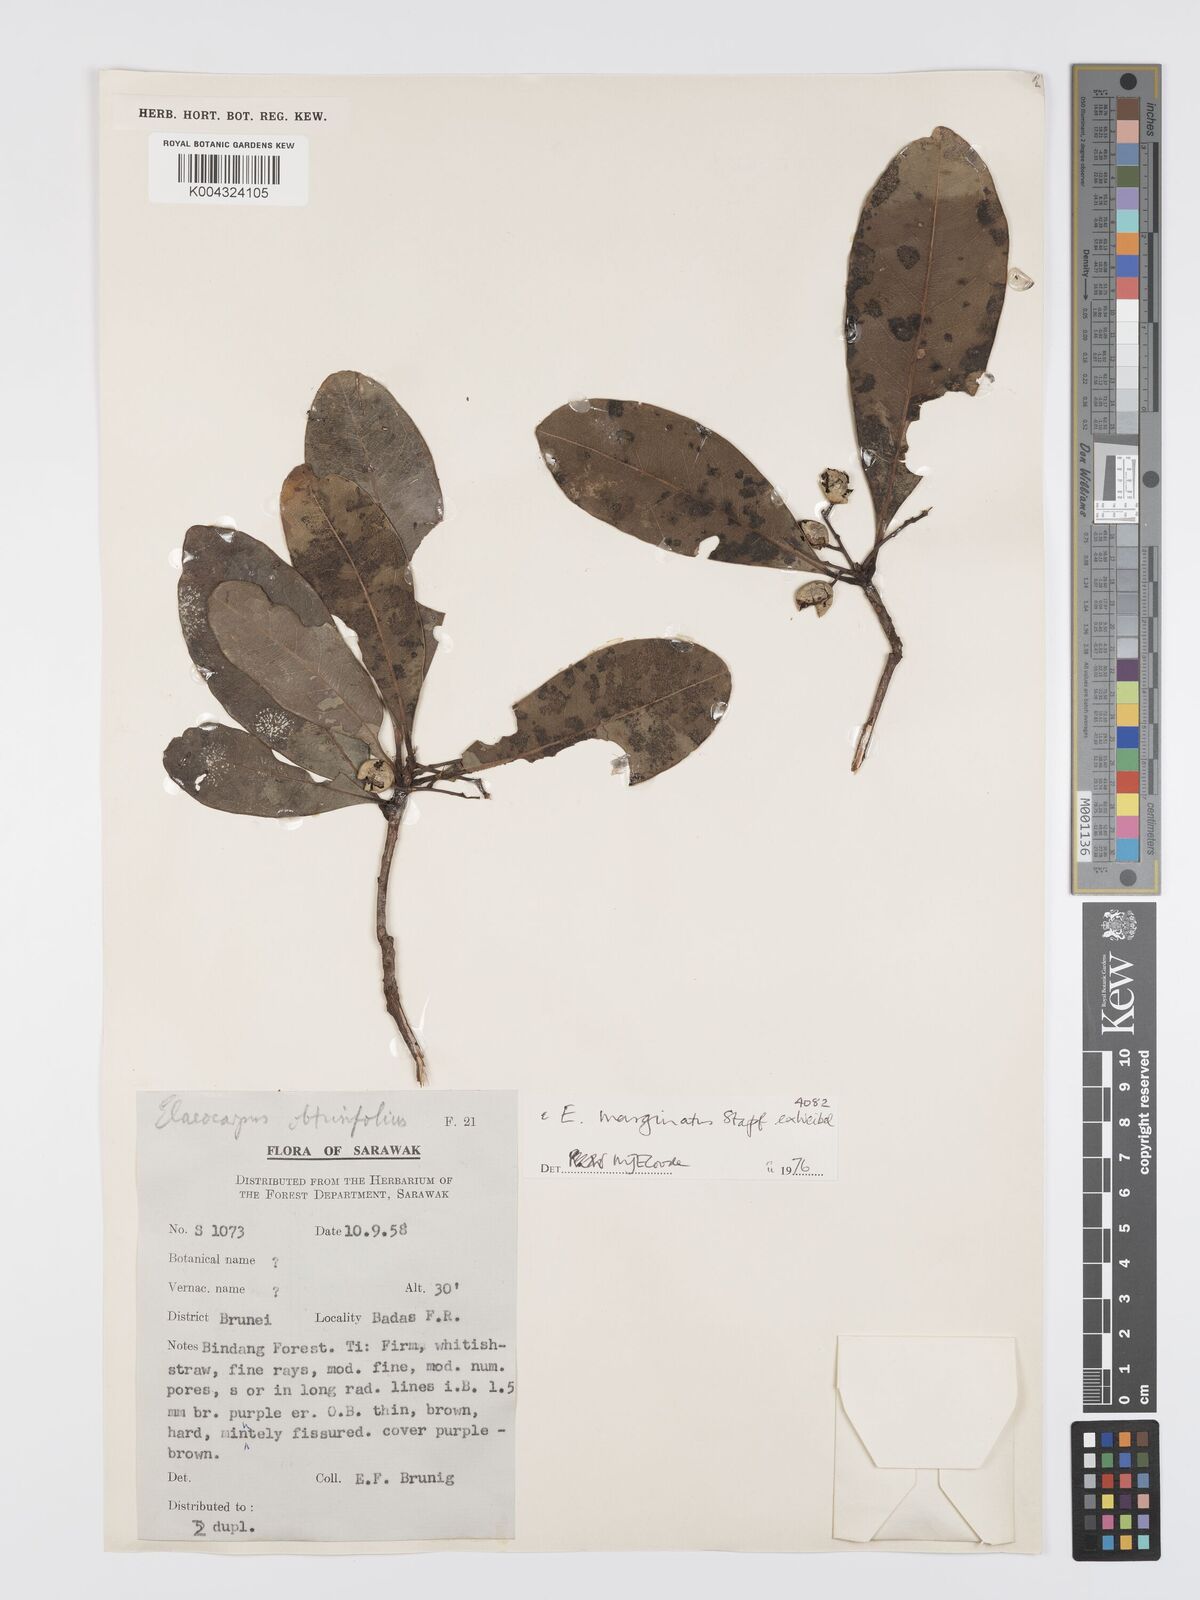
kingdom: Plantae
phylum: Tracheophyta
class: Magnoliopsida
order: Oxalidales
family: Elaeocarpaceae
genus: Elaeocarpus
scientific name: Elaeocarpus marginatus
